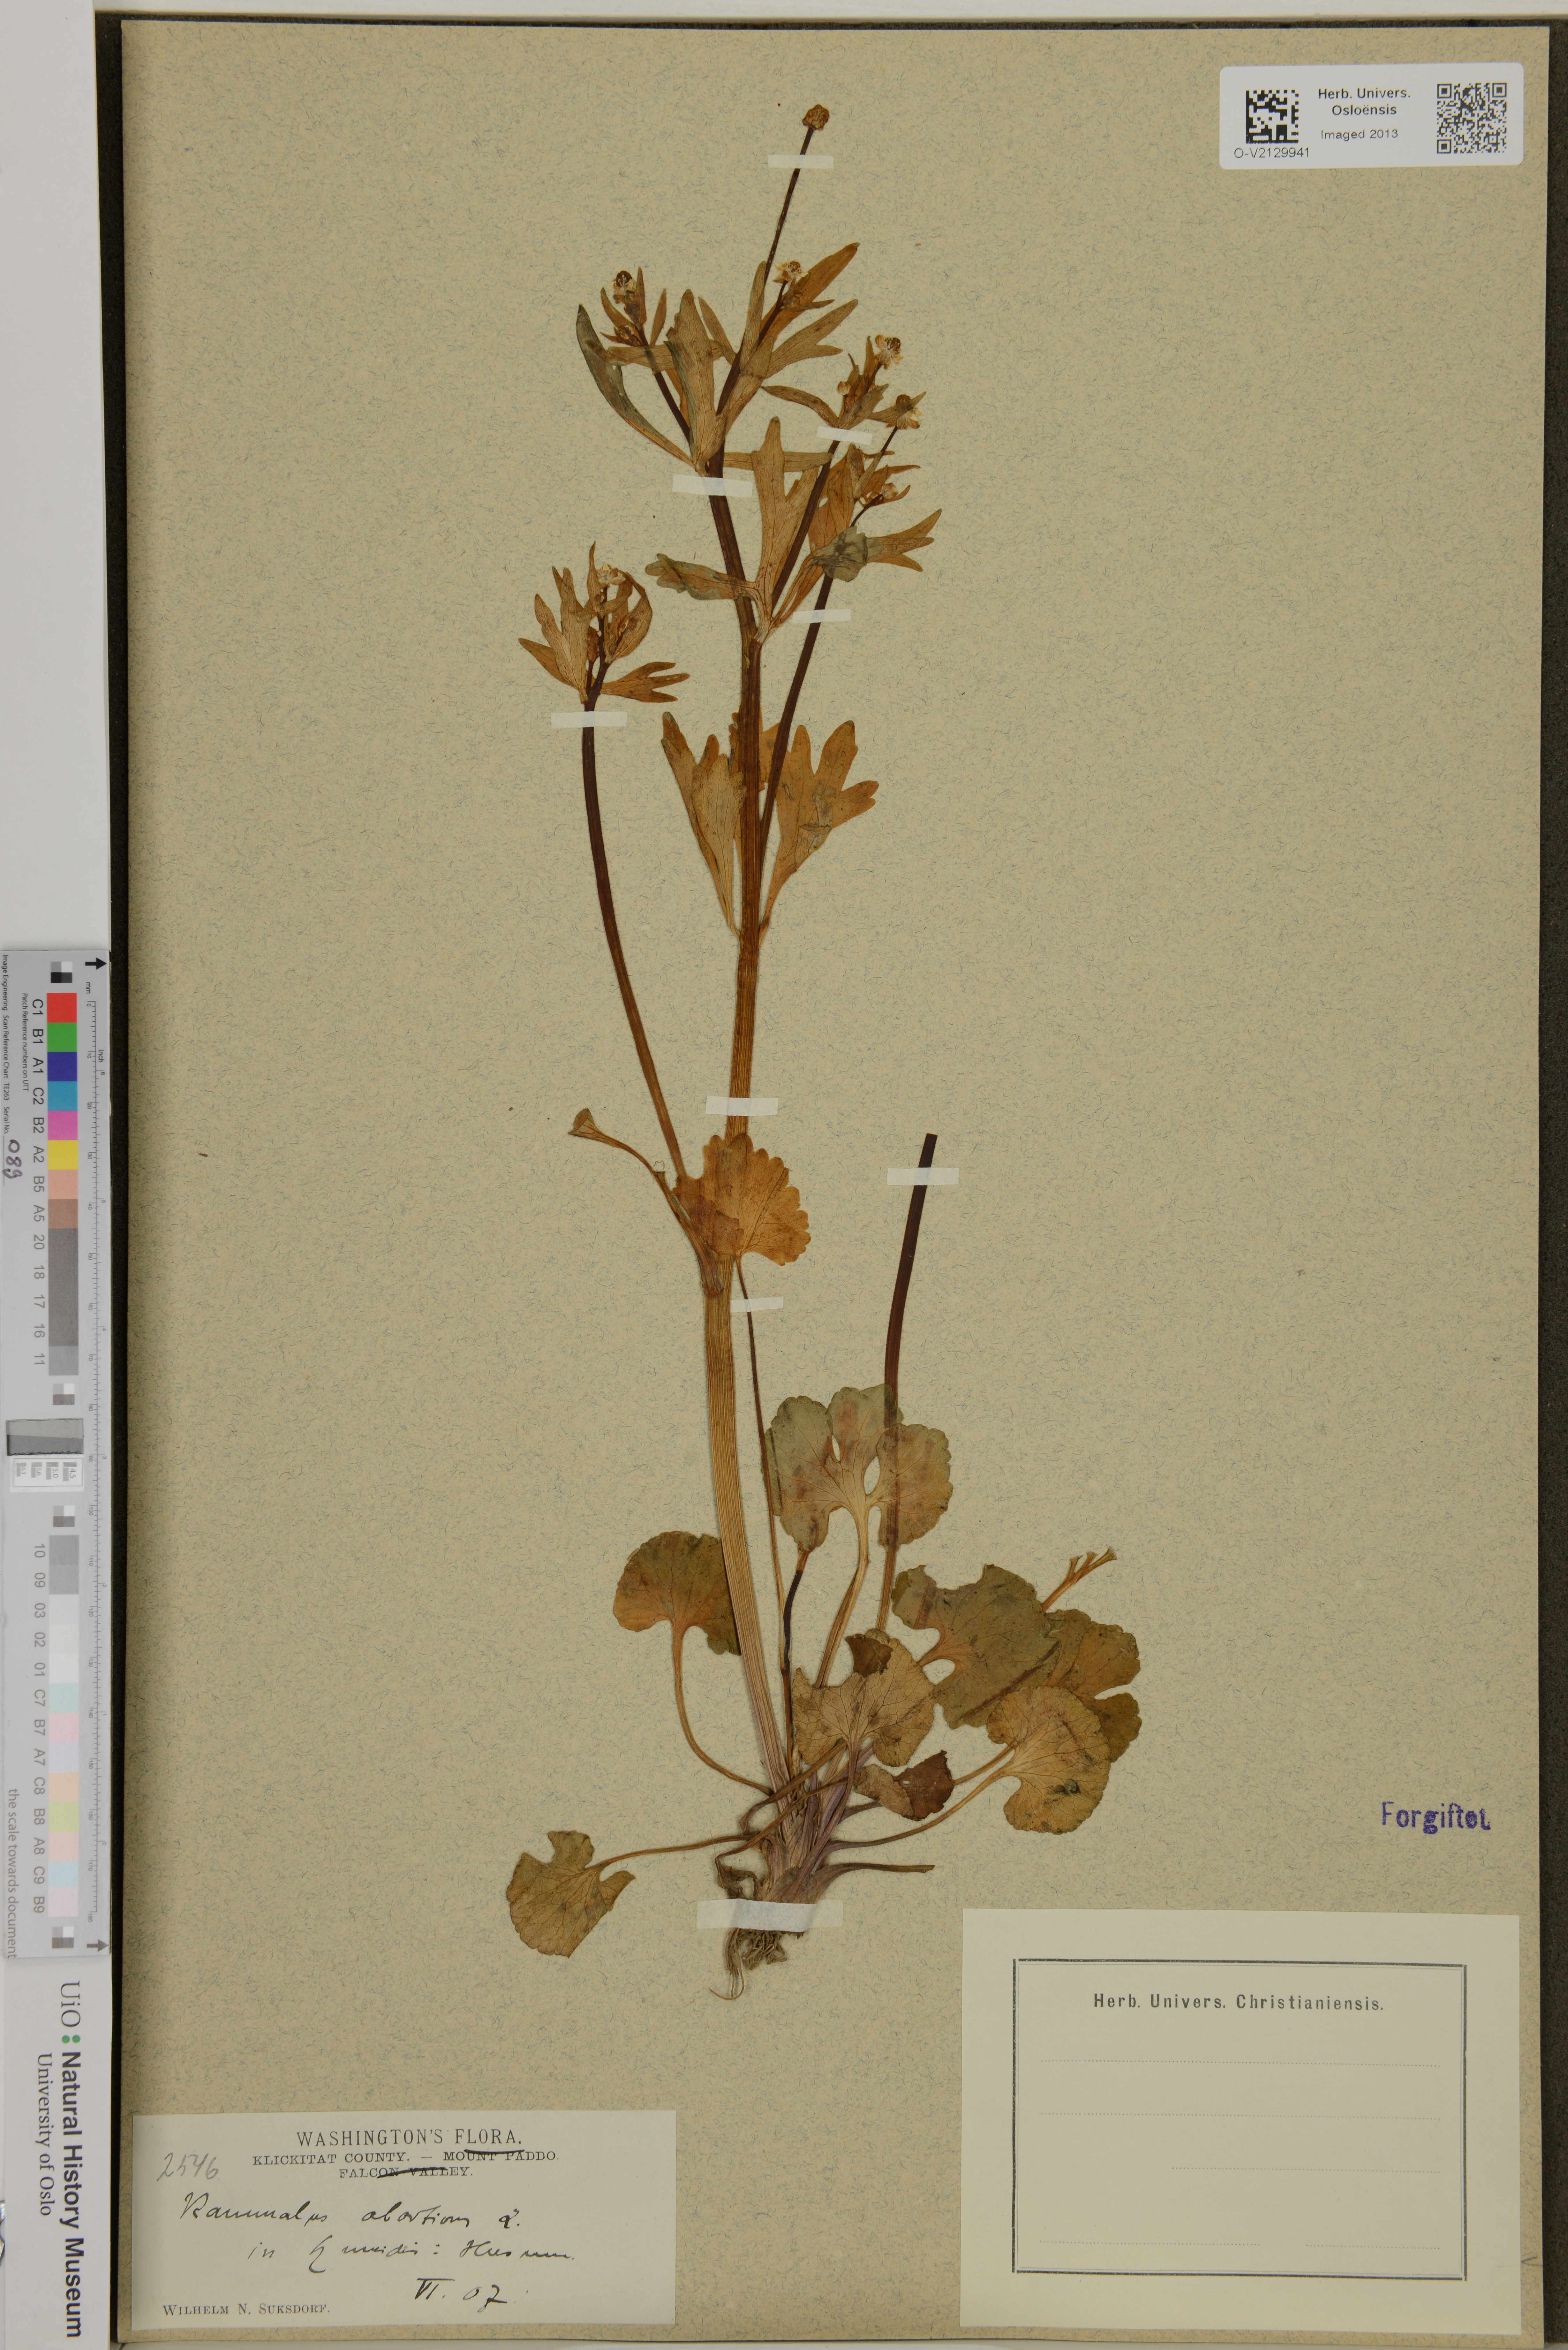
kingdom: Plantae
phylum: Tracheophyta
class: Magnoliopsida
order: Ranunculales
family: Ranunculaceae
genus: Ranunculus
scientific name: Ranunculus abortivus
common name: Early wood buttercup
